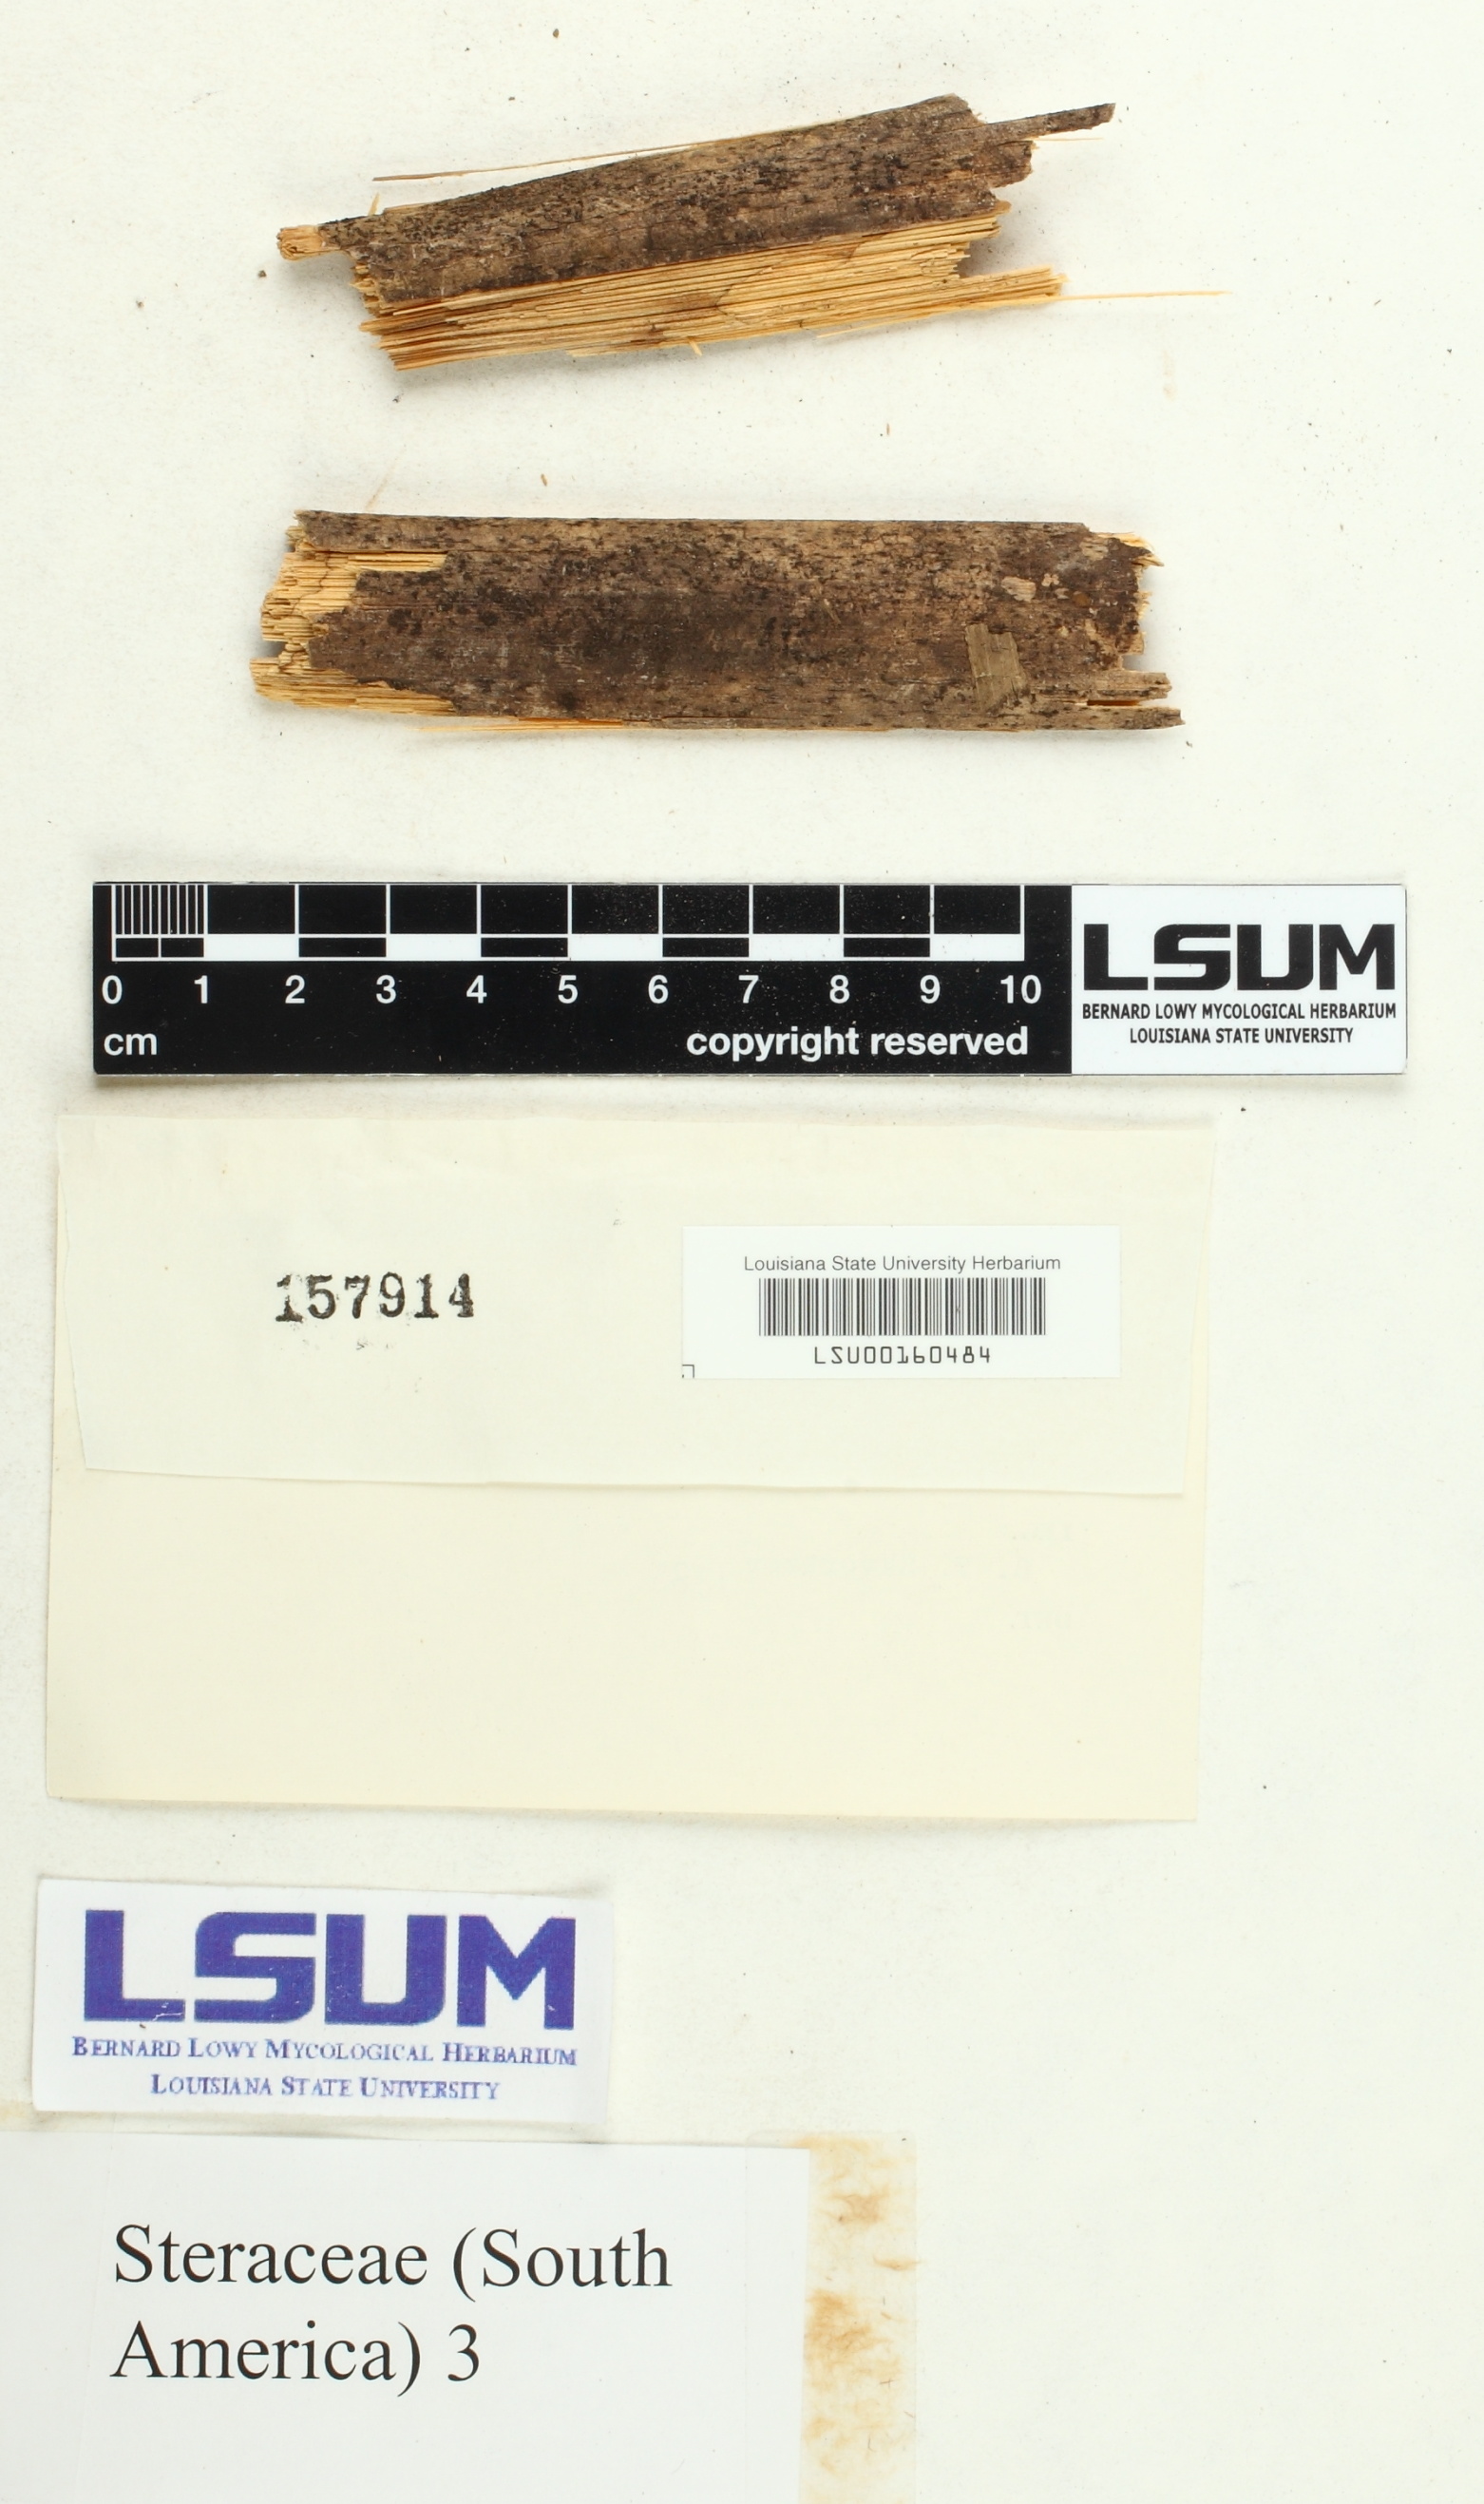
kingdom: Fungi
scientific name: Fungi
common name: Fungi
